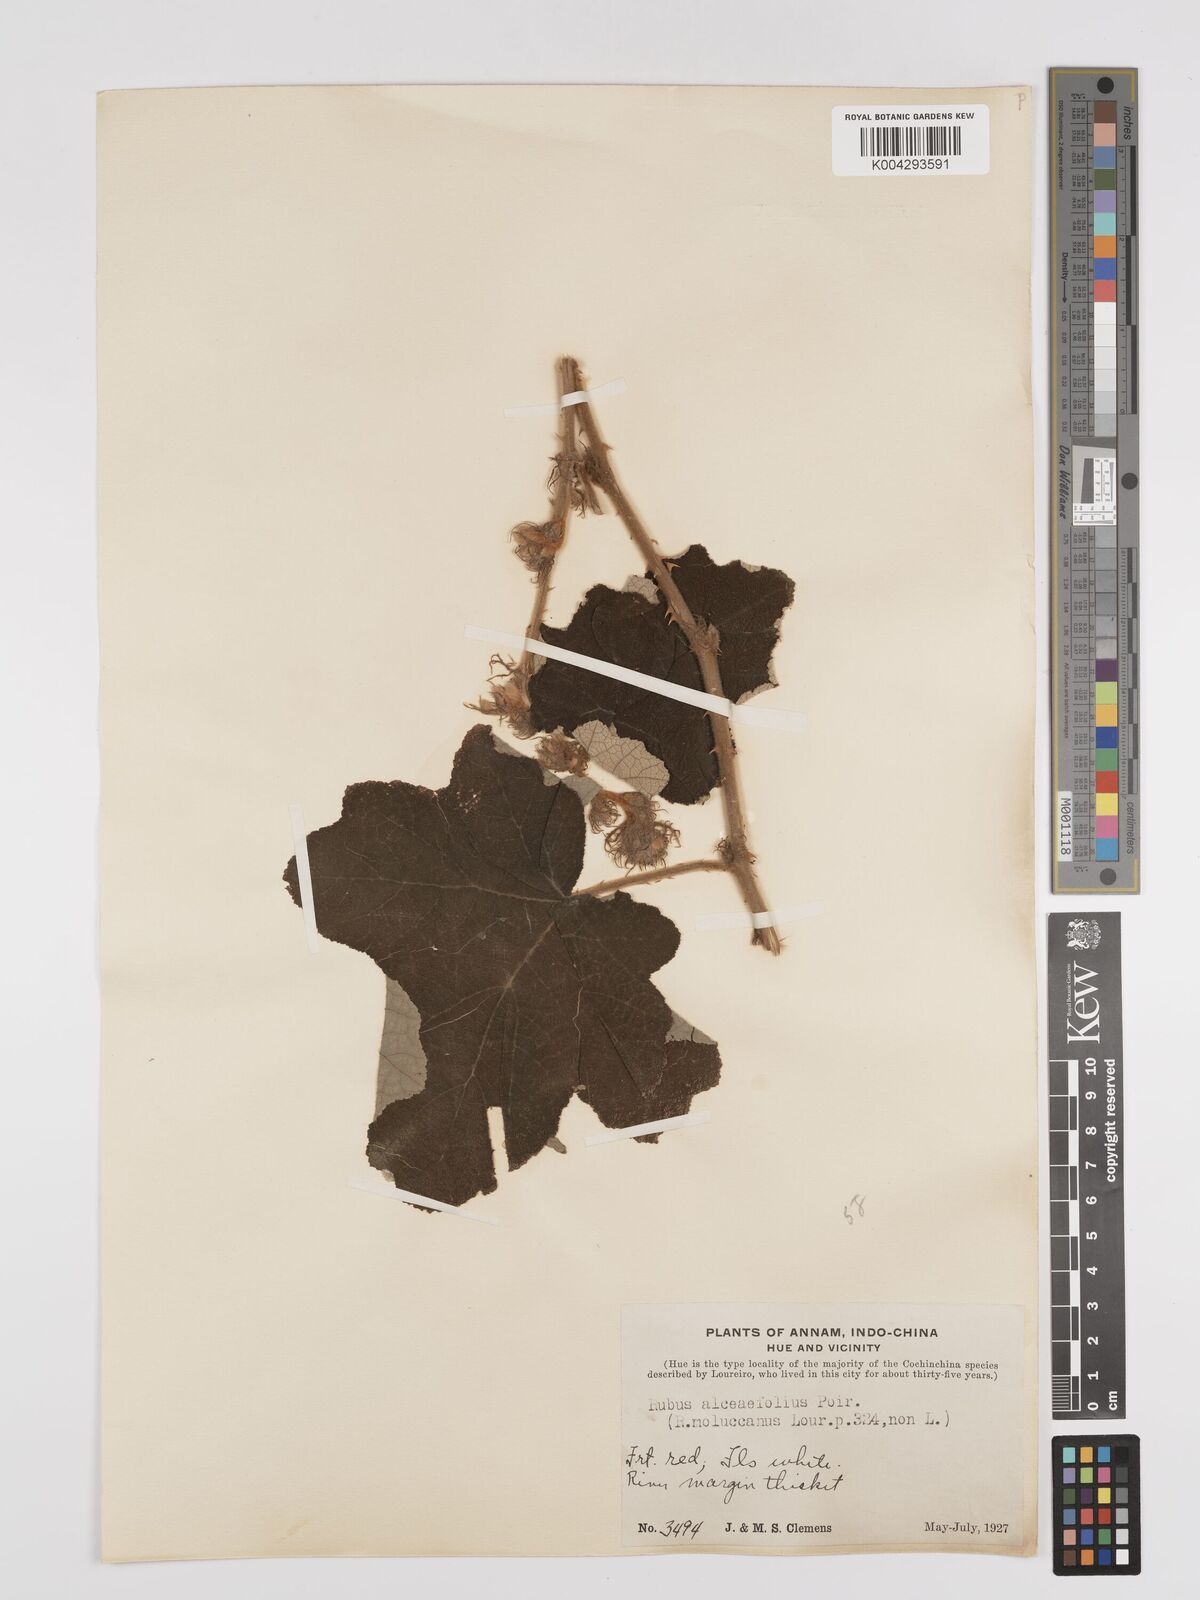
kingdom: Plantae
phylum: Tracheophyta
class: Magnoliopsida
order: Rosales
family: Rosaceae
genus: Rubus
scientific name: Rubus alceifolius
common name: Giant bramble
